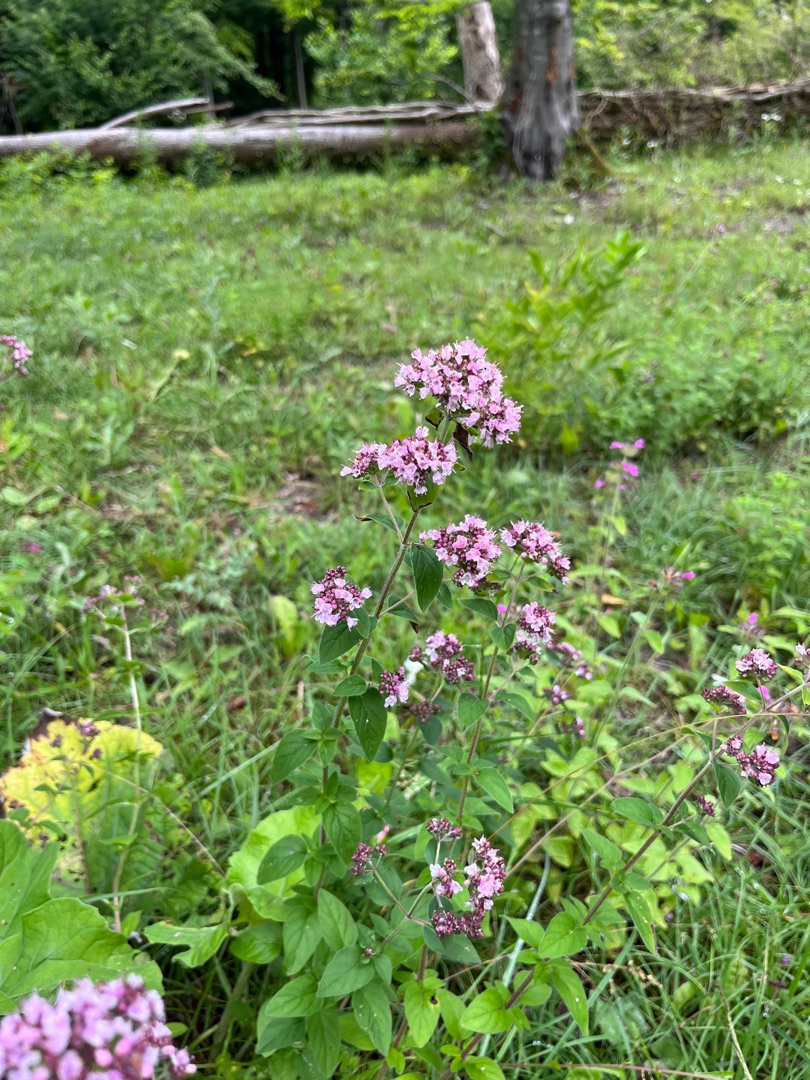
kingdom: Plantae
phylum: Tracheophyta
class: Magnoliopsida
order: Lamiales
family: Lamiaceae
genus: Origanum
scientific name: Origanum vulgare
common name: Merian
